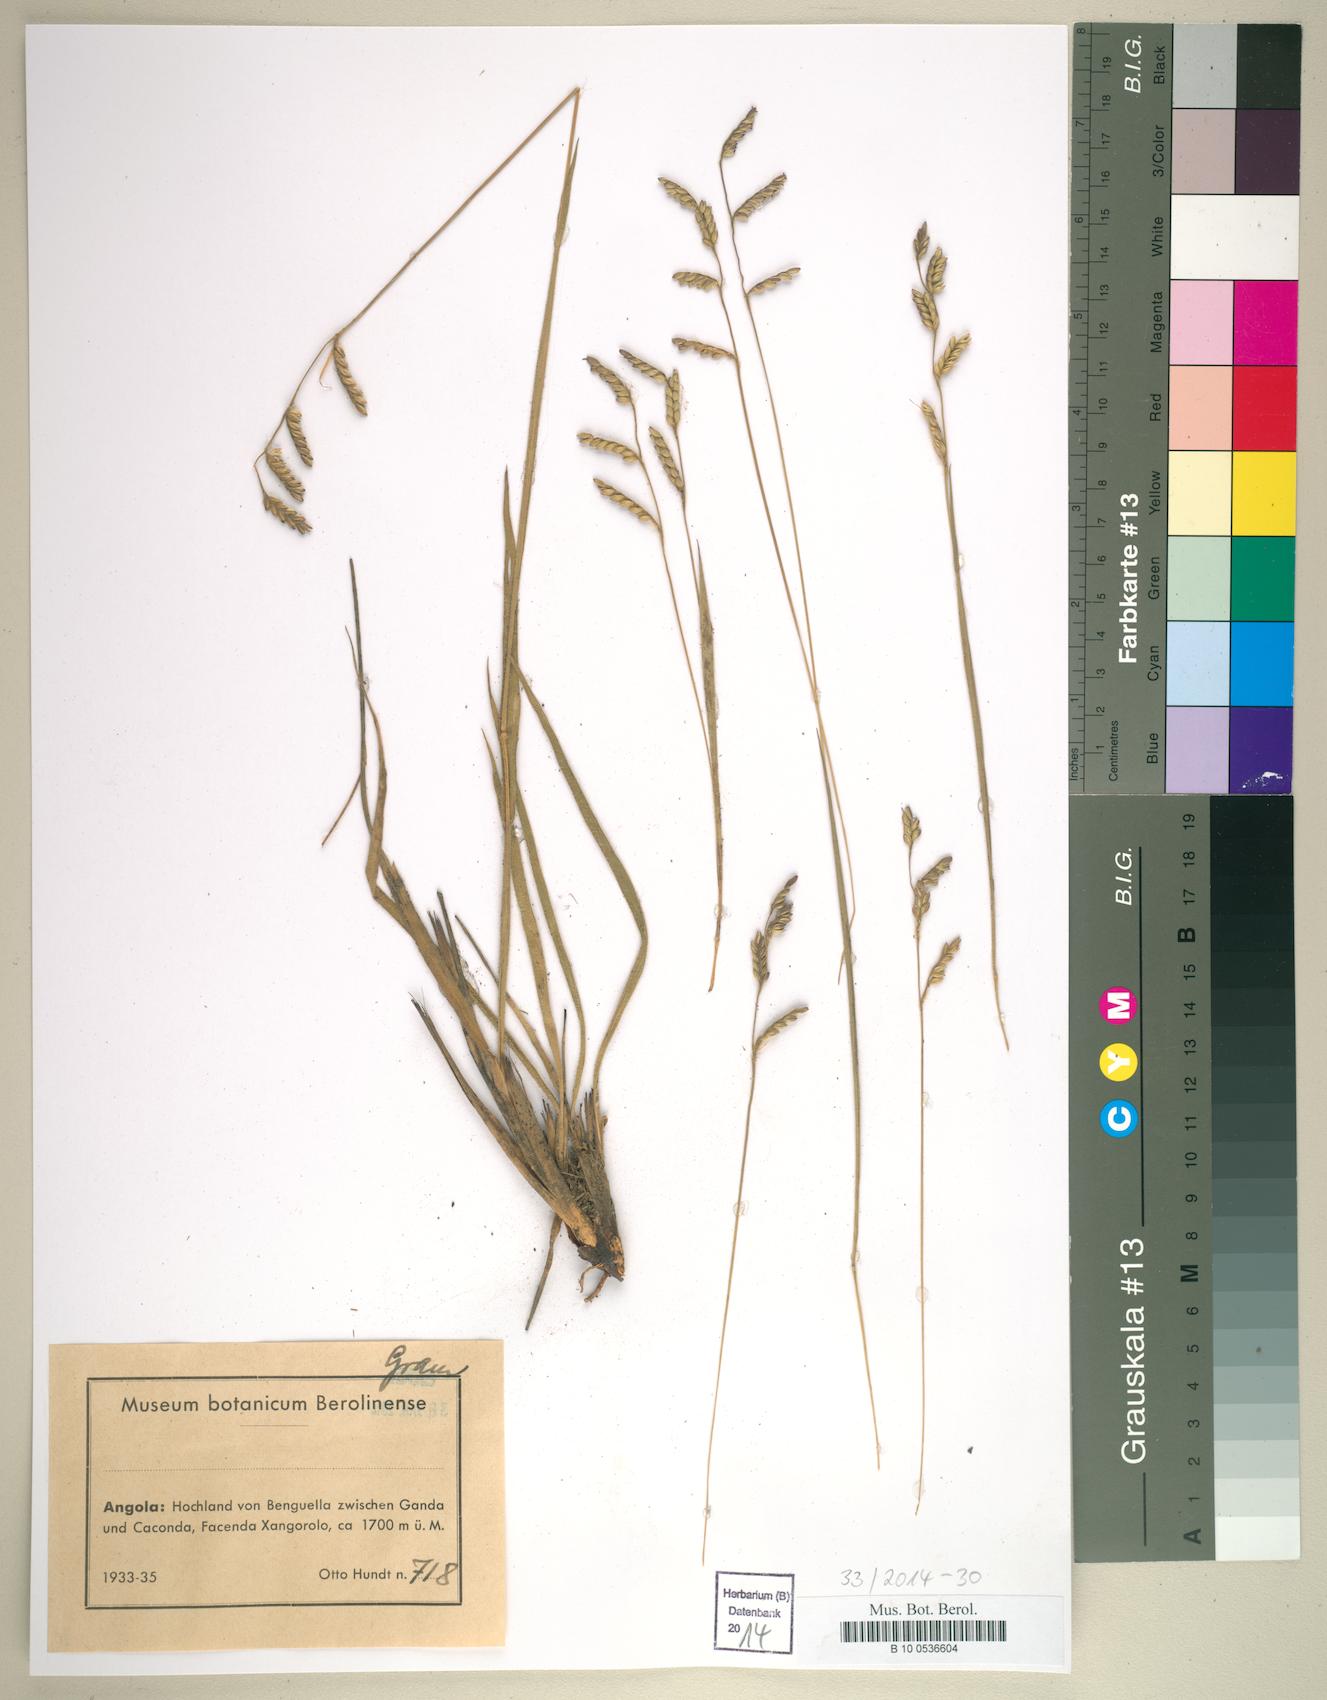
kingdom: Plantae
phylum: Tracheophyta
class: Liliopsida
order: Poales
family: Poaceae
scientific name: Poaceae
